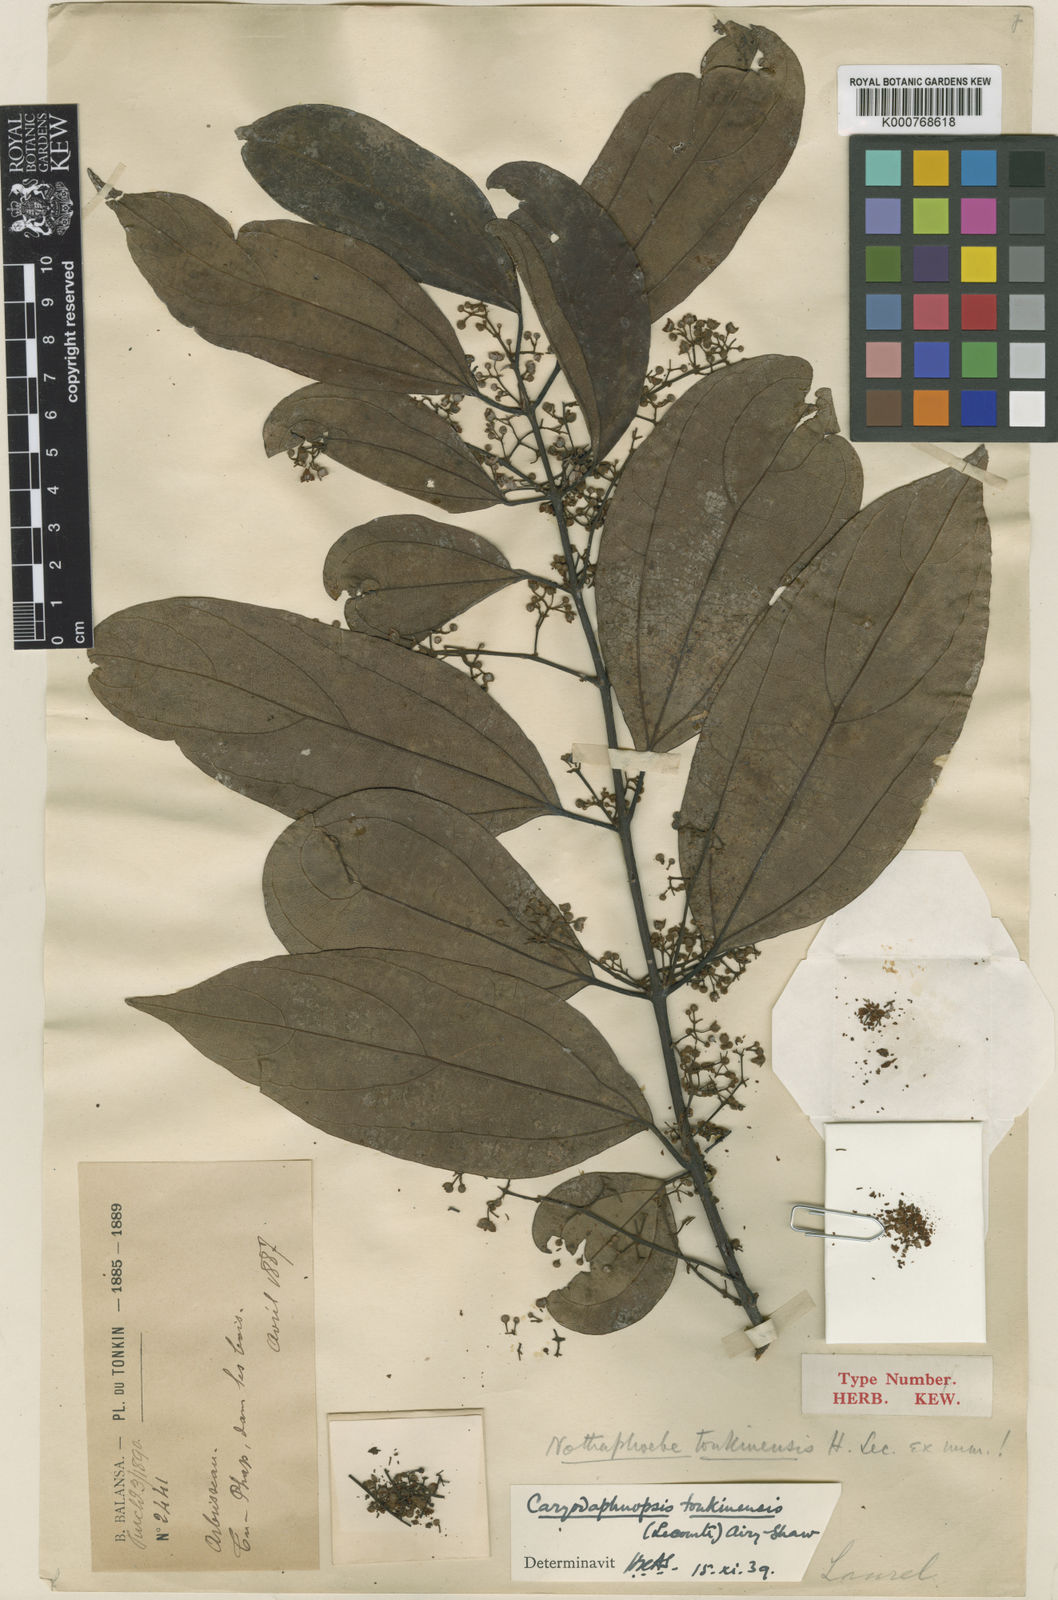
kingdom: Plantae
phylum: Tracheophyta
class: Magnoliopsida
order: Laurales
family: Lauraceae
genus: Caryodaphnopsis
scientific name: Caryodaphnopsis tonkinensis
